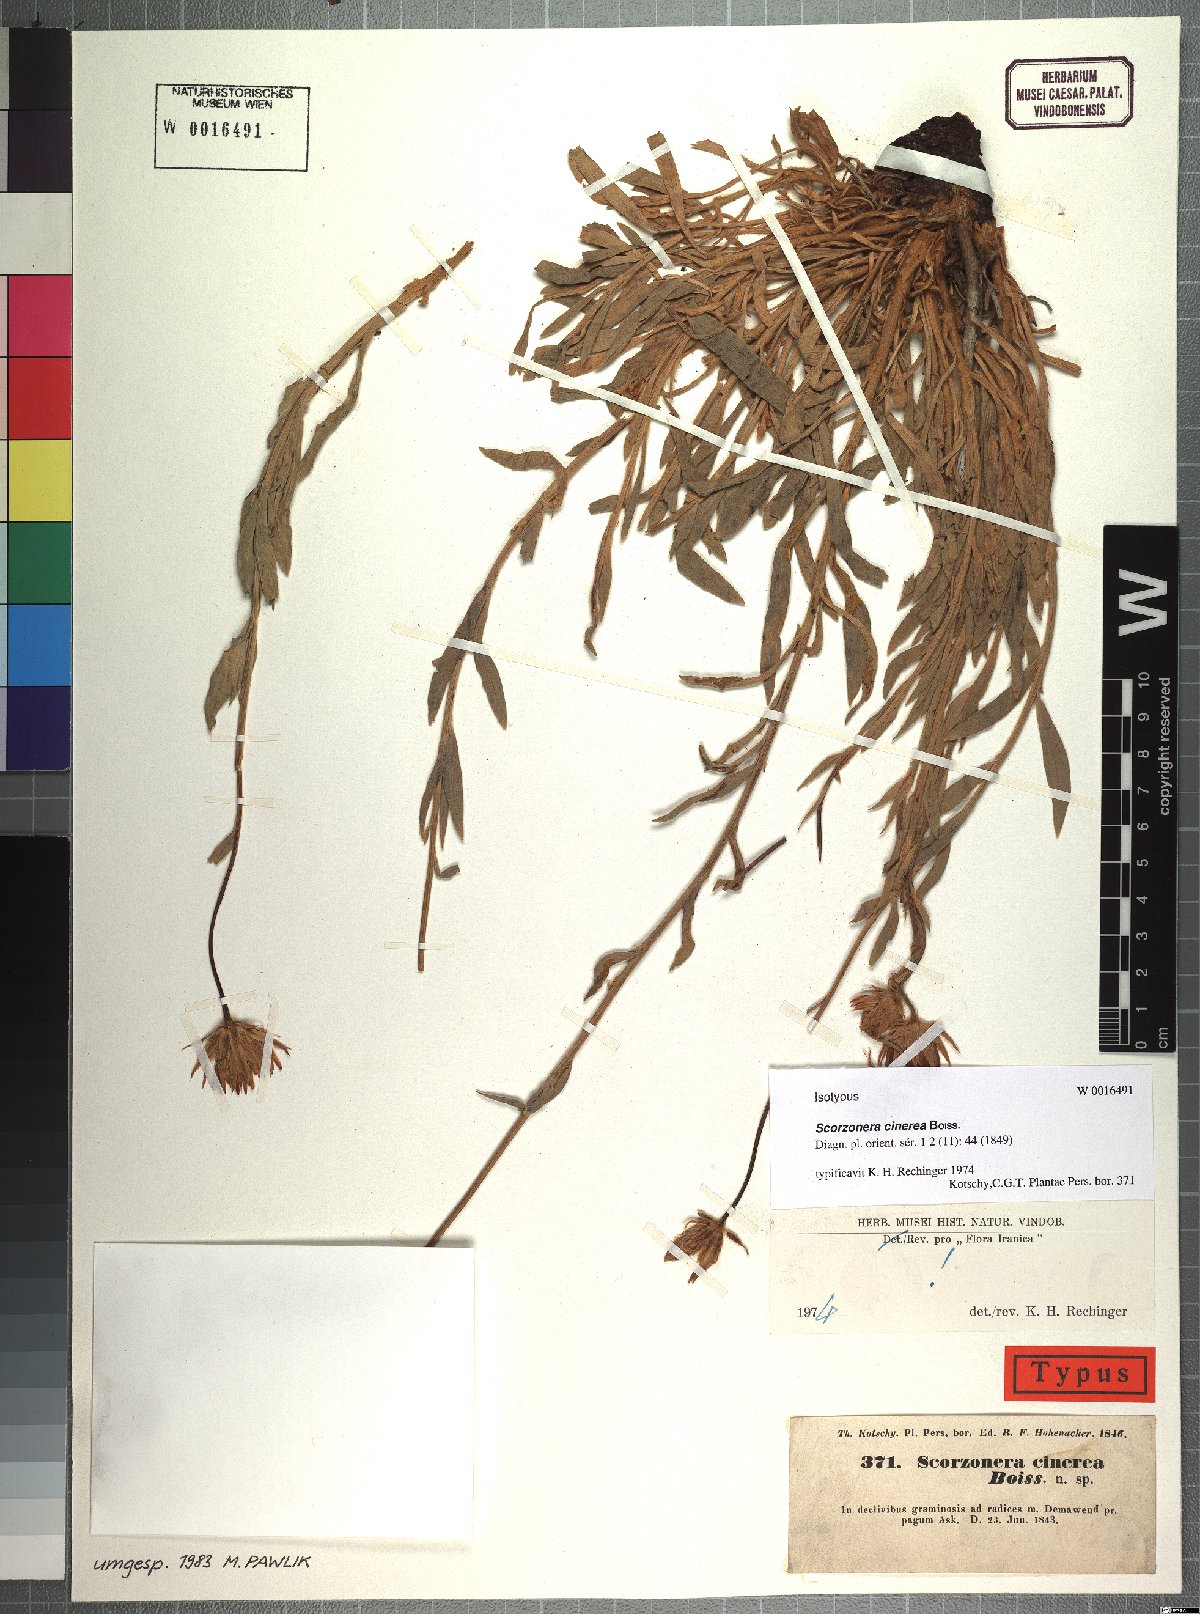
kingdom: Plantae
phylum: Tracheophyta
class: Magnoliopsida
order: Asterales
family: Asteraceae
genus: Cigdemia
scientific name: Cigdemia cinerea
